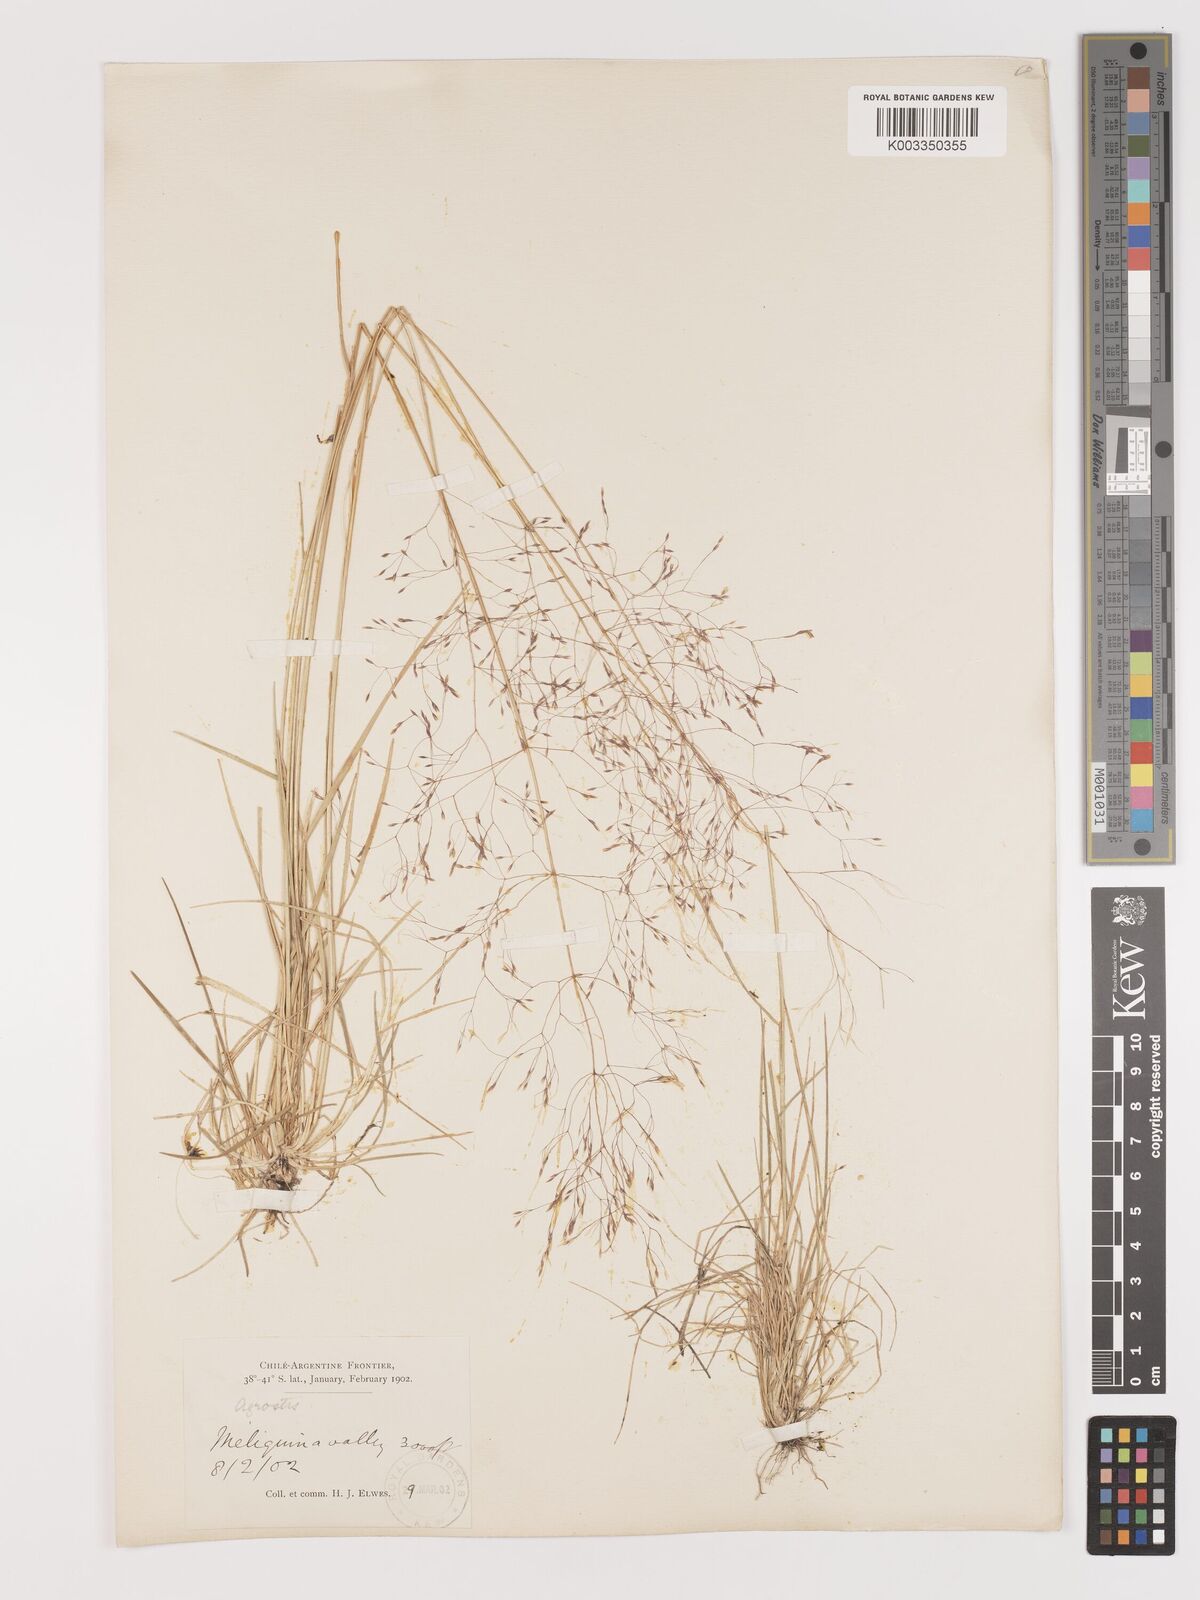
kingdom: Plantae
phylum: Tracheophyta
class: Liliopsida
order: Poales
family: Poaceae
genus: Agrostis
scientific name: Agrostis
